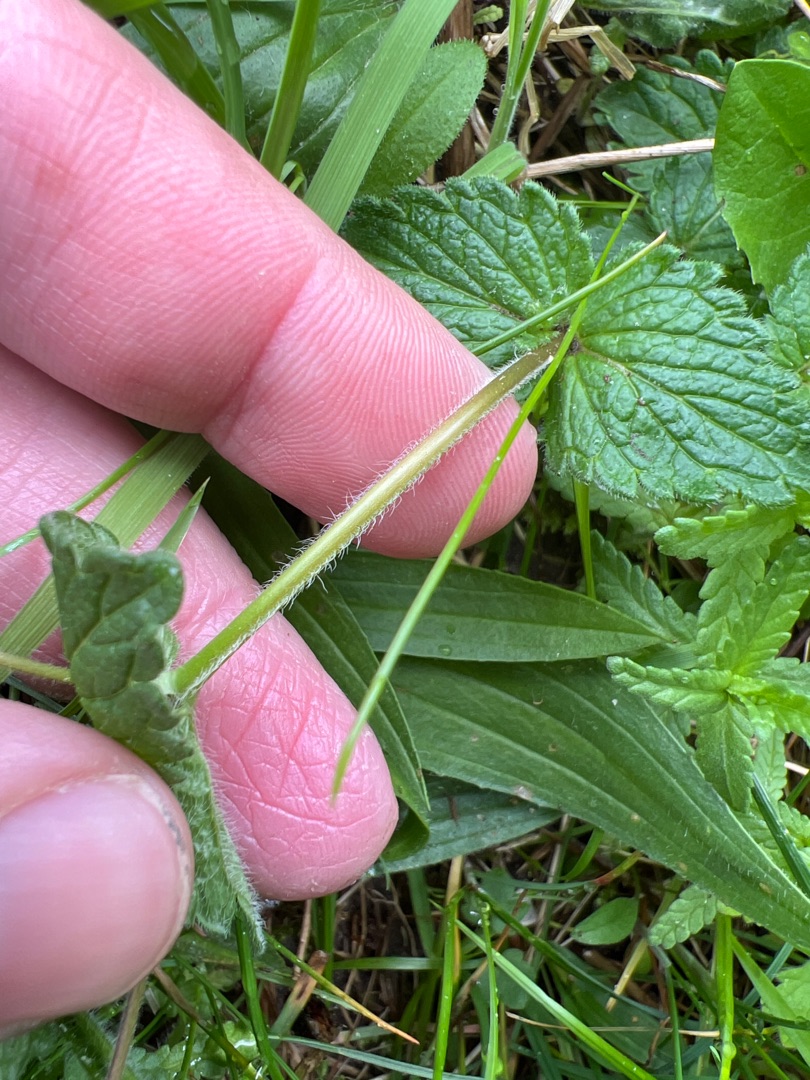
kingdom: Plantae
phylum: Tracheophyta
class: Magnoliopsida
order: Lamiales
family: Plantaginaceae
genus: Veronica
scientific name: Veronica chamaedrys
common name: Tveskægget ærenpris
